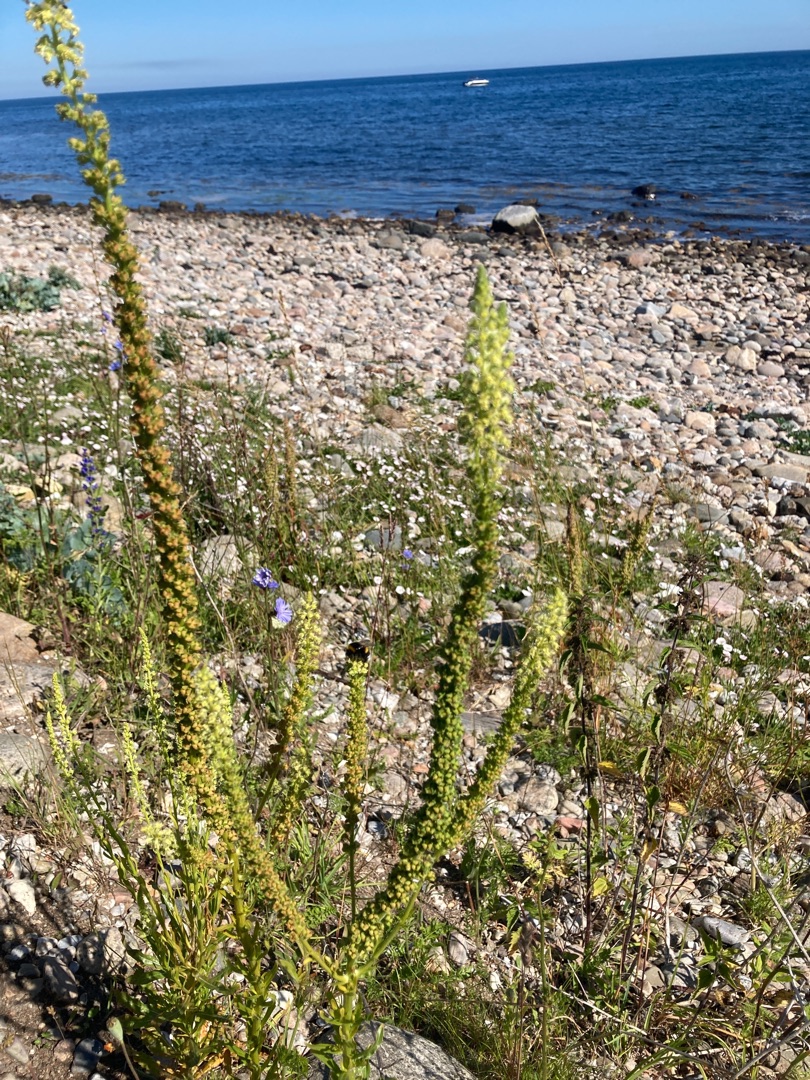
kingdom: Plantae
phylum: Tracheophyta
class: Magnoliopsida
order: Brassicales
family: Resedaceae
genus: Reseda
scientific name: Reseda luteola
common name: Farve-reseda
